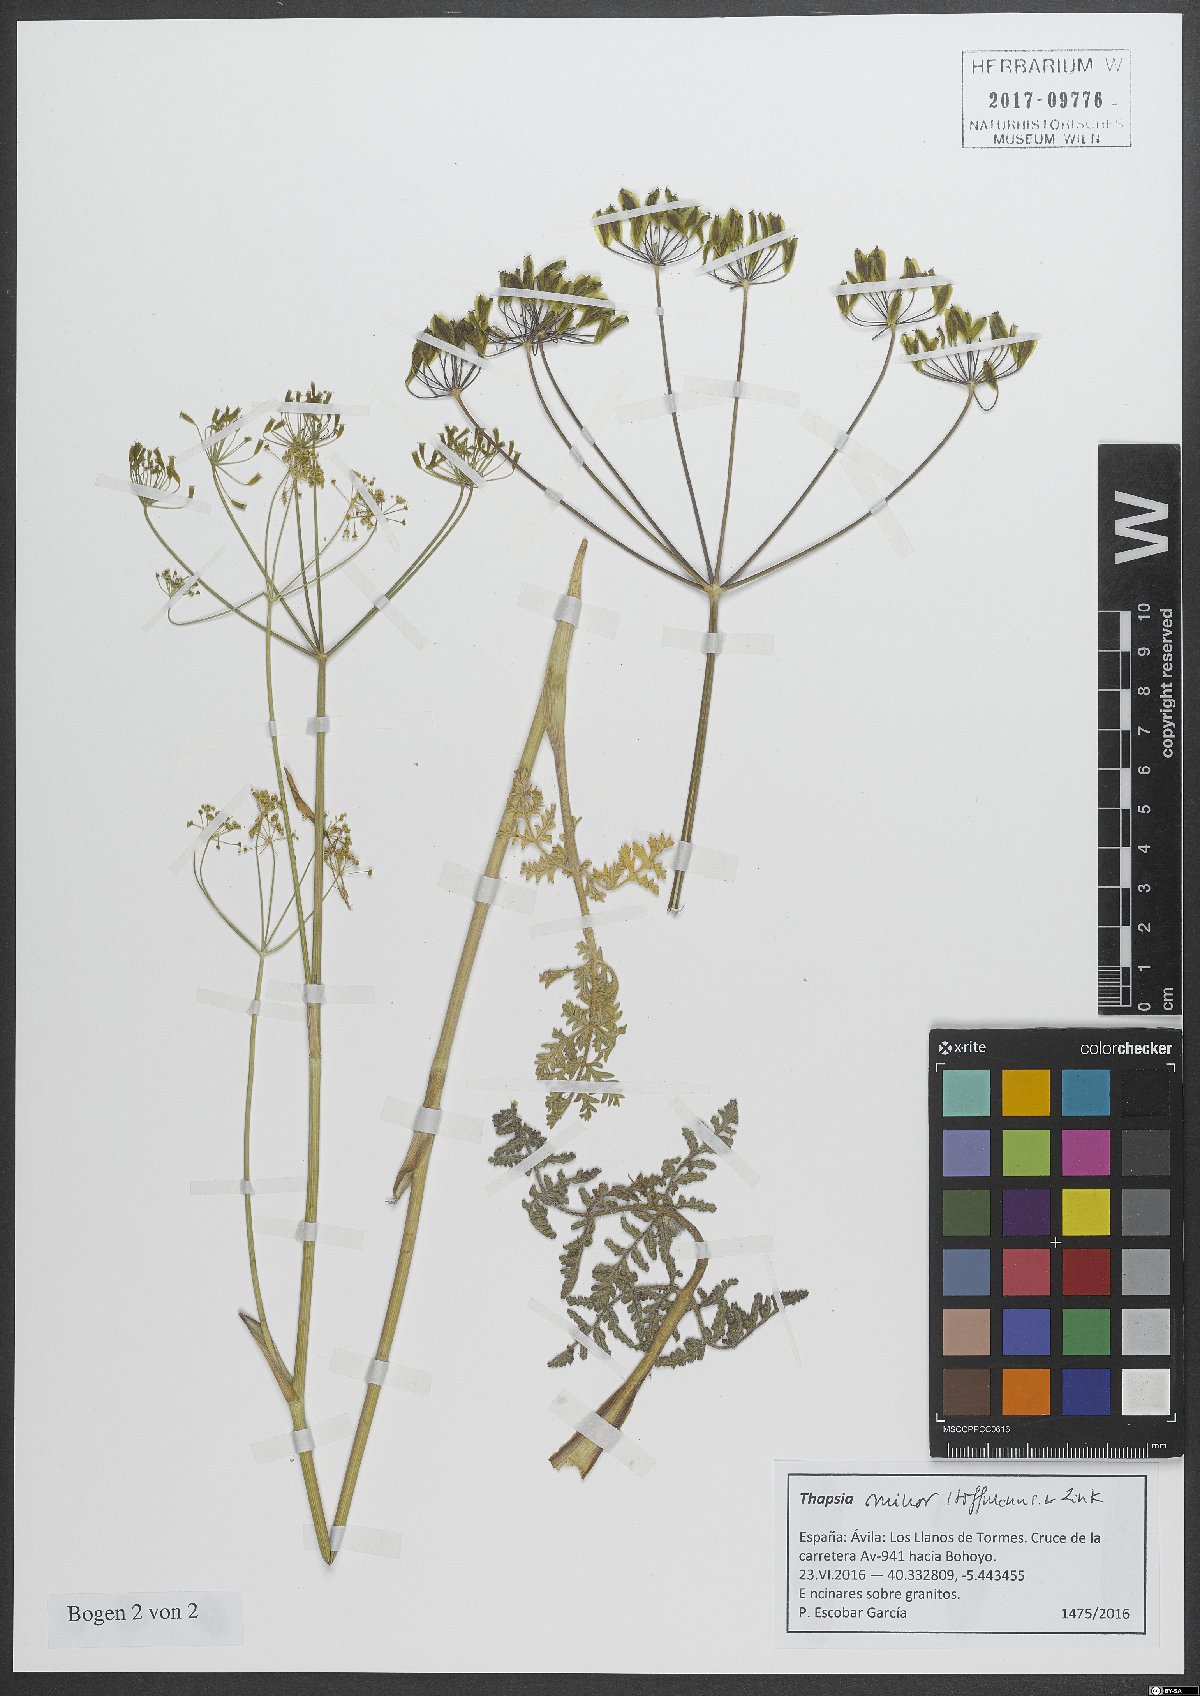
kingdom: Plantae
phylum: Tracheophyta
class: Magnoliopsida
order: Apiales
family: Apiaceae
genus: Thapsia
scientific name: Thapsia minor
